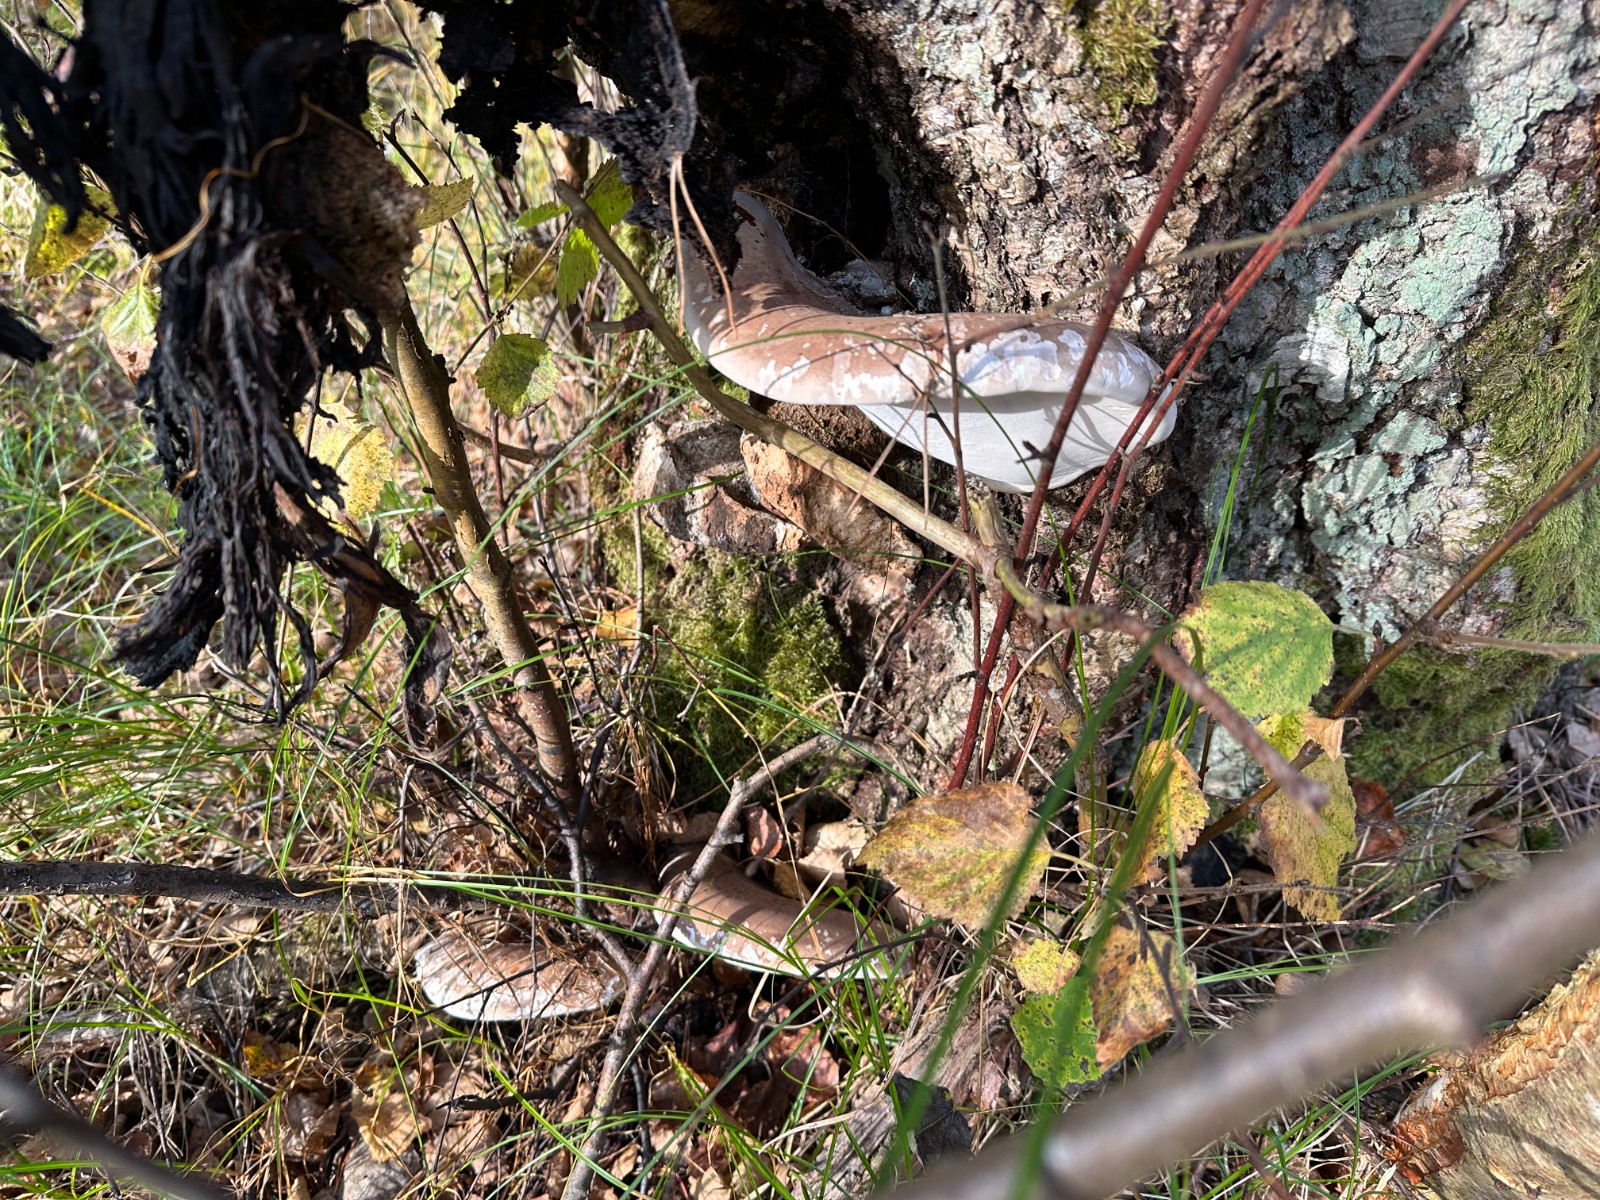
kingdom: Fungi
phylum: Basidiomycota
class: Agaricomycetes
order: Polyporales
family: Fomitopsidaceae
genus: Fomitopsis
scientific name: Fomitopsis betulina
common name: birkeporesvamp
